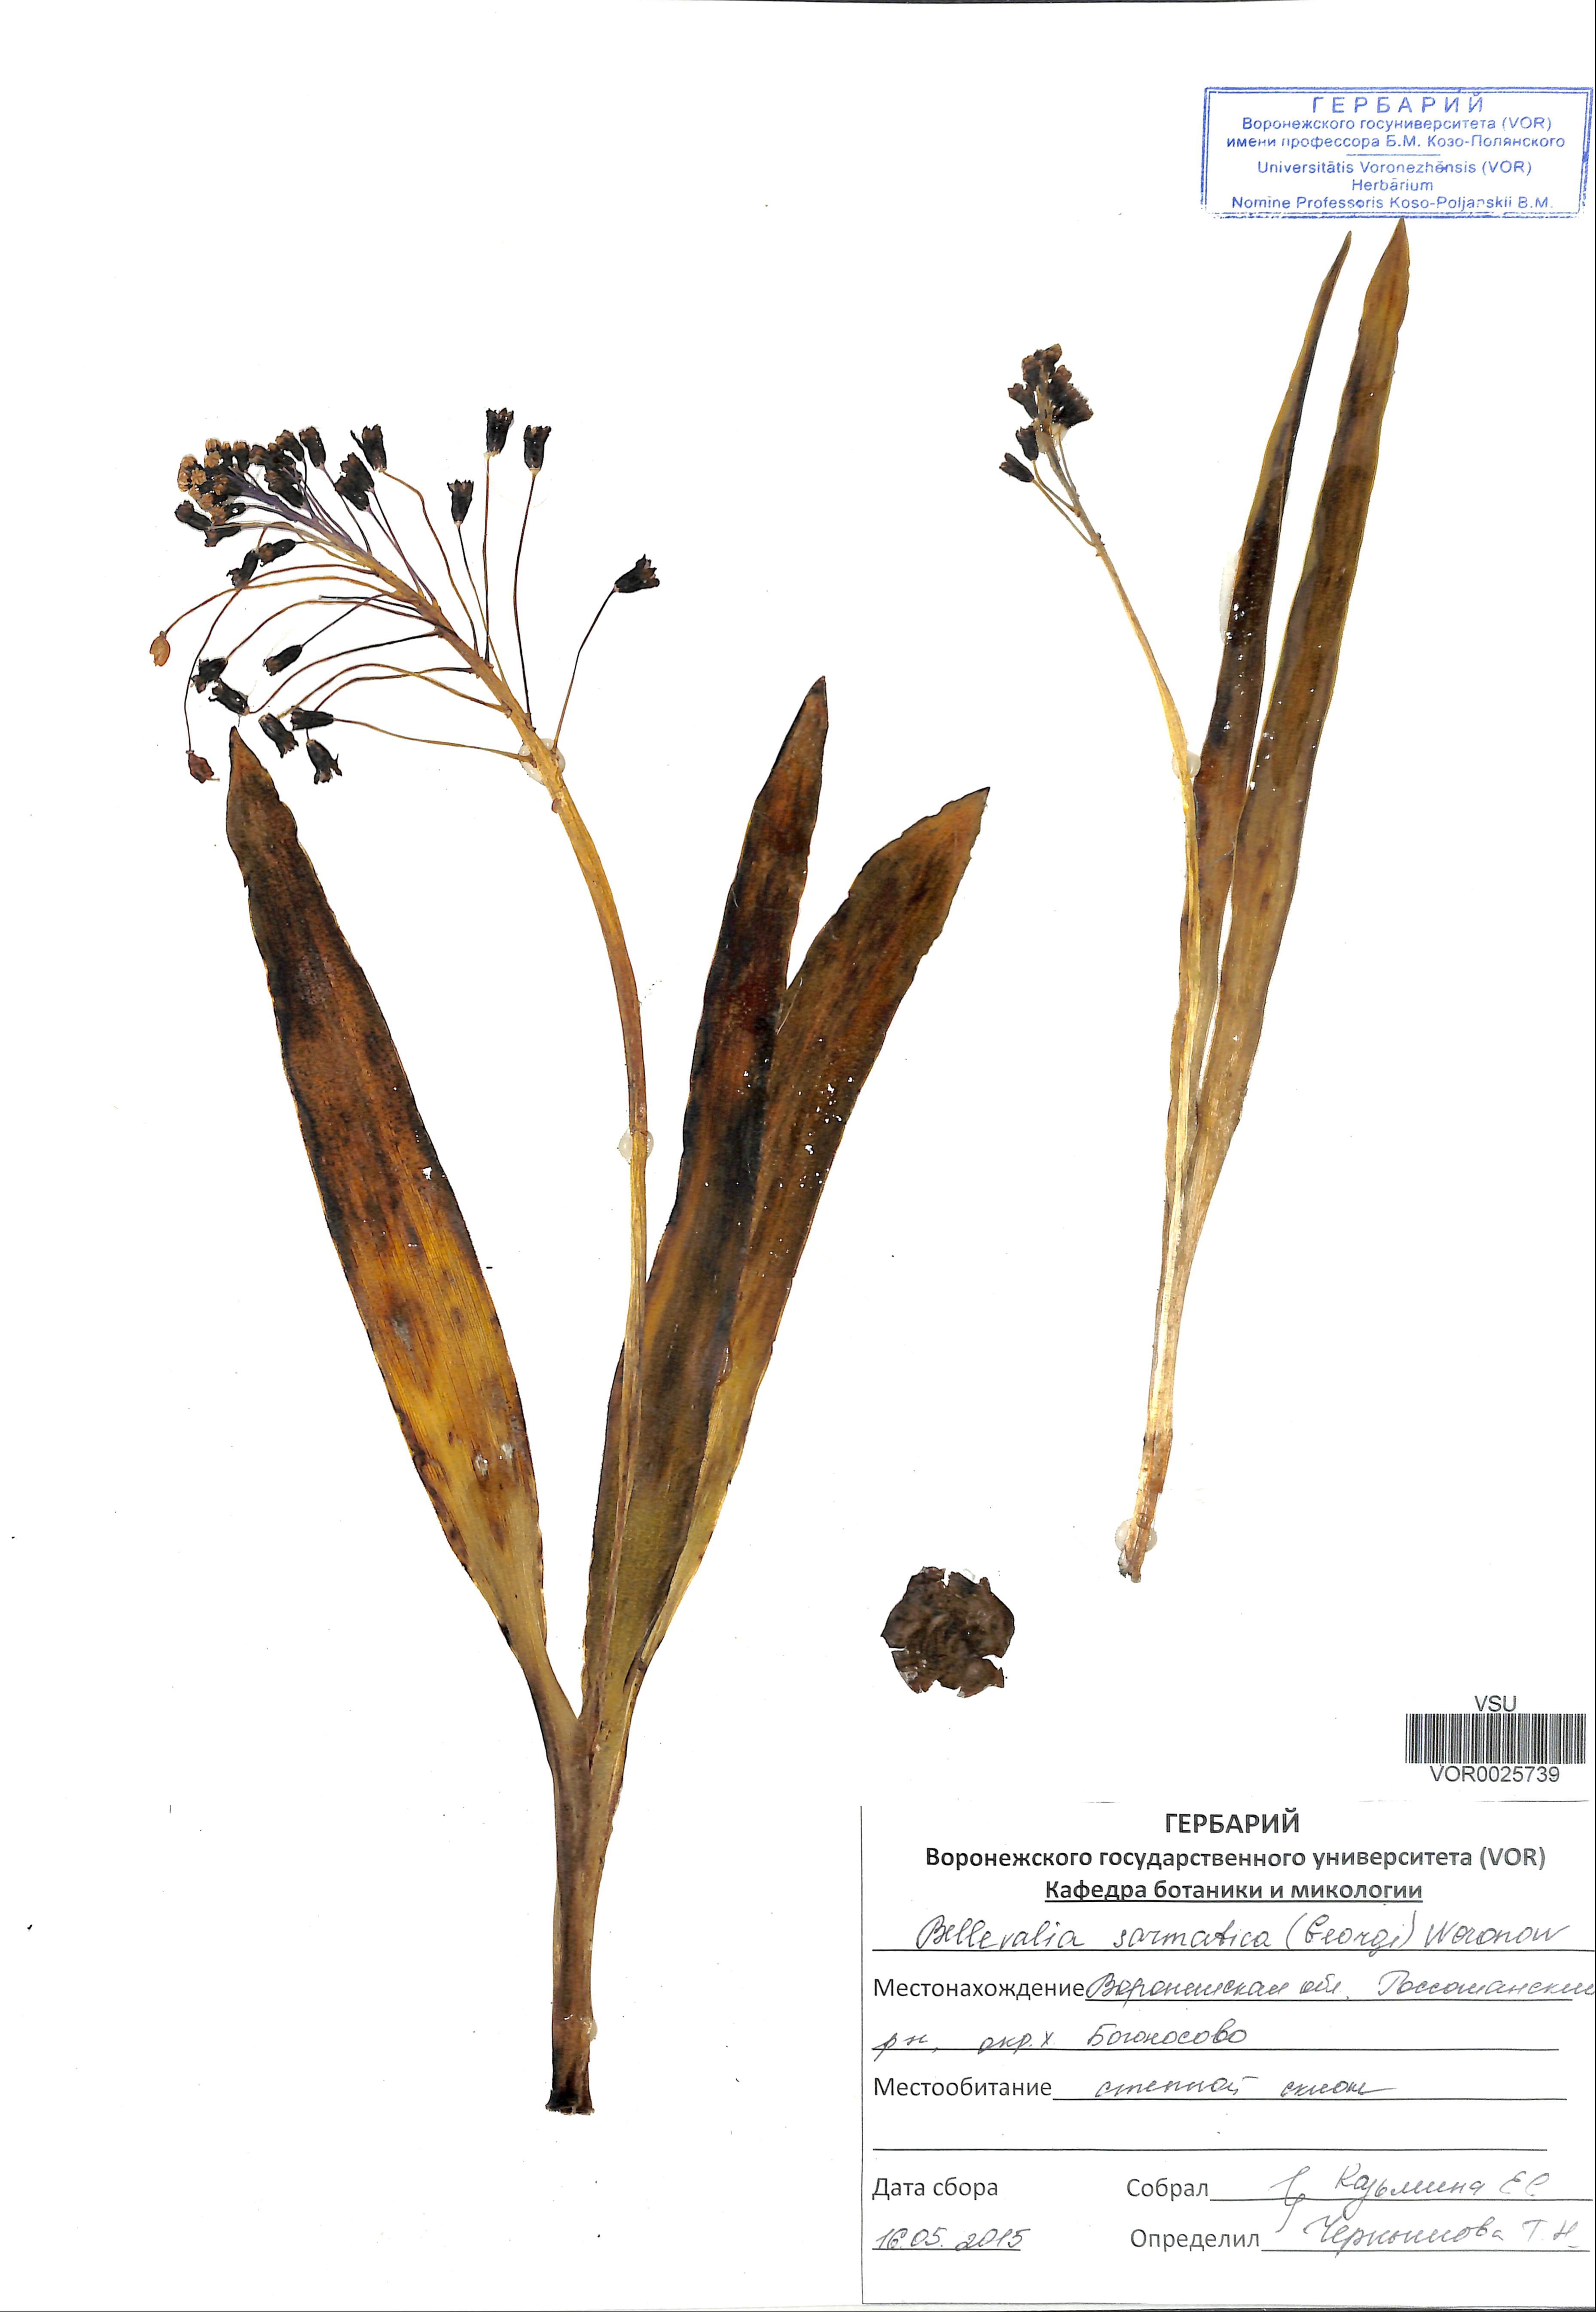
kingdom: Plantae
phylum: Tracheophyta
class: Liliopsida
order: Asparagales
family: Asparagaceae
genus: Bellevalia
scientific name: Bellevalia speciosa
